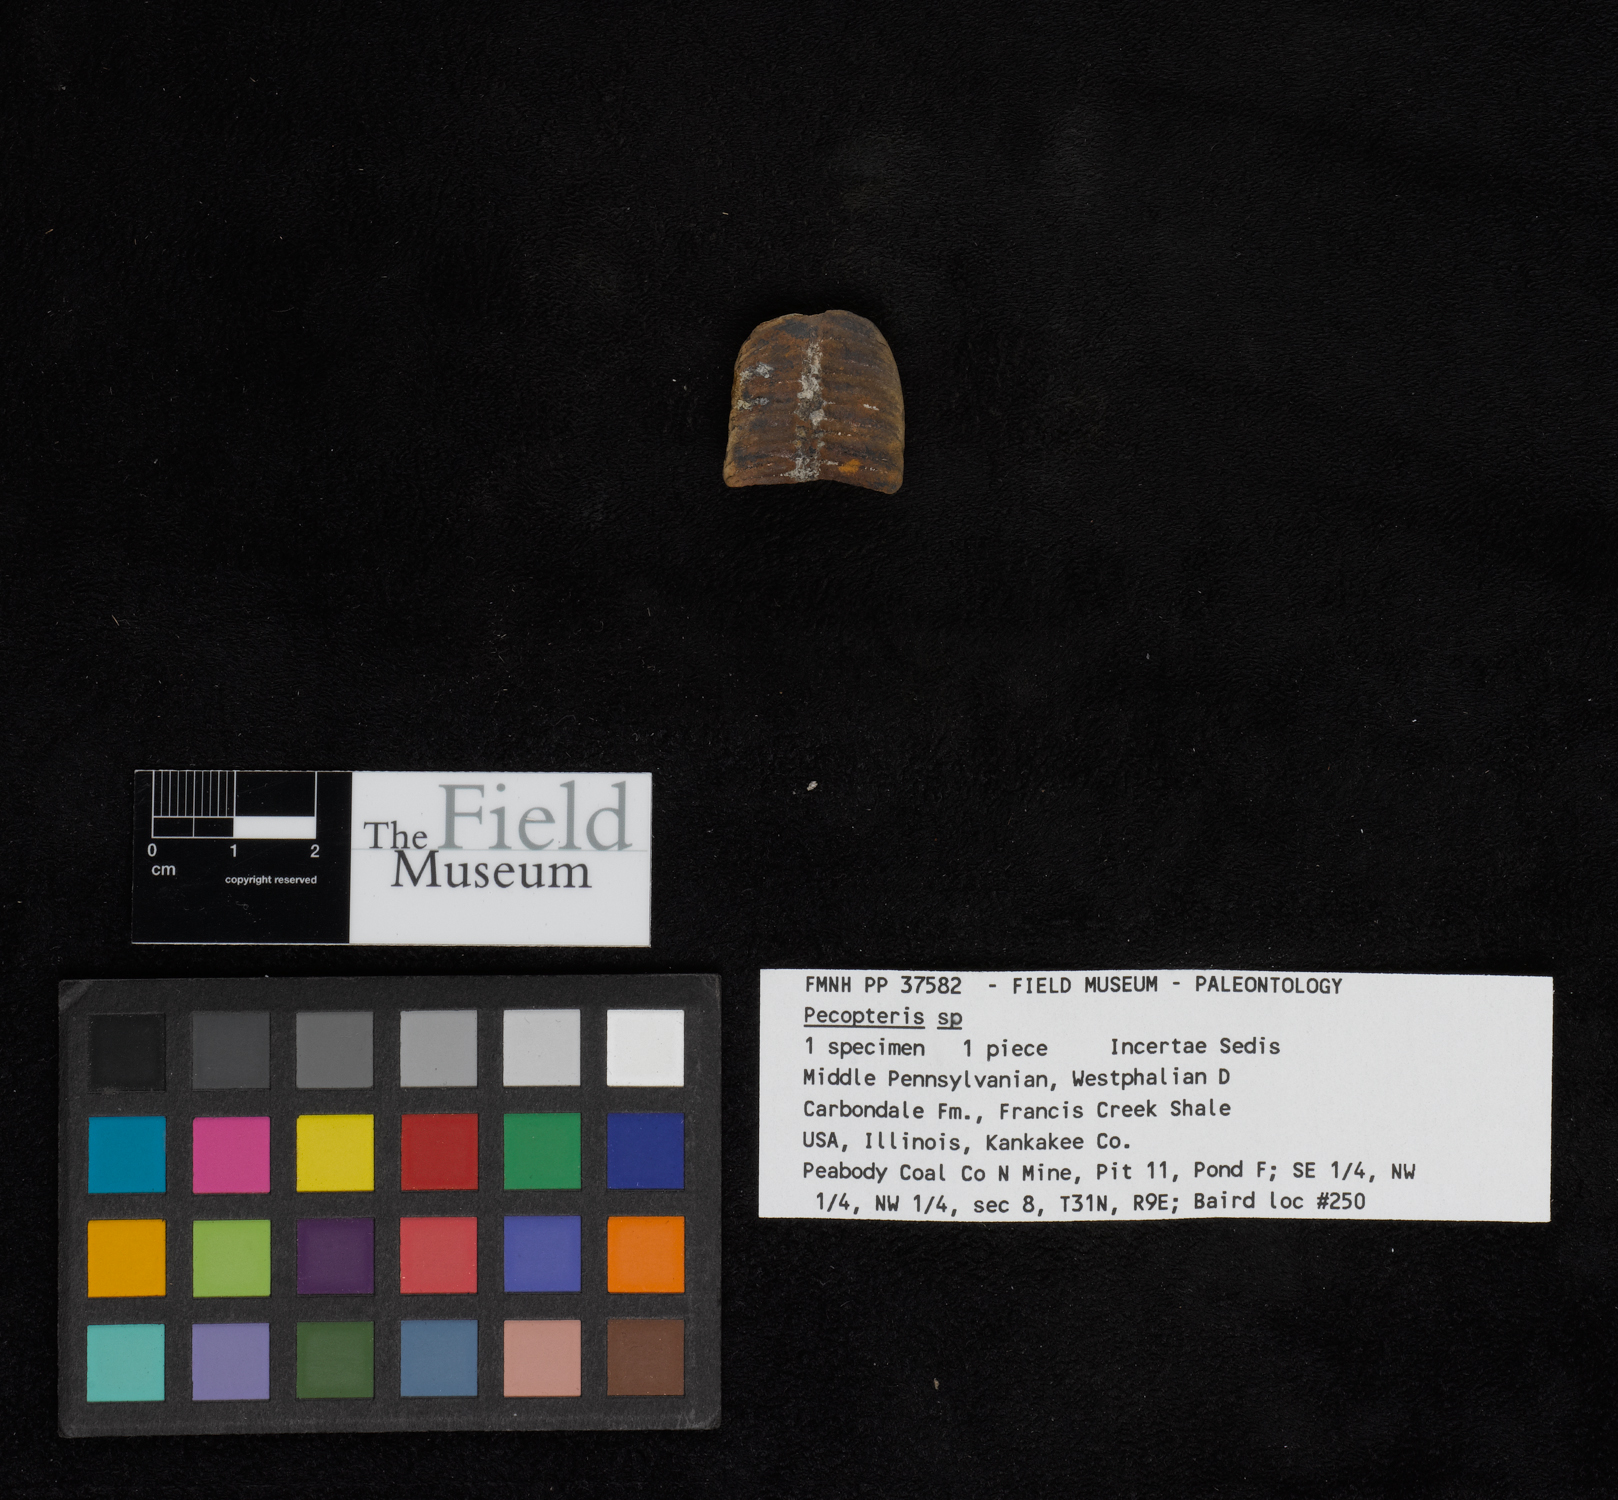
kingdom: Plantae
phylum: Tracheophyta
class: Polypodiopsida
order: Marattiales
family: Asterothecaceae
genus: Pecopteris
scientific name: Pecopteris
